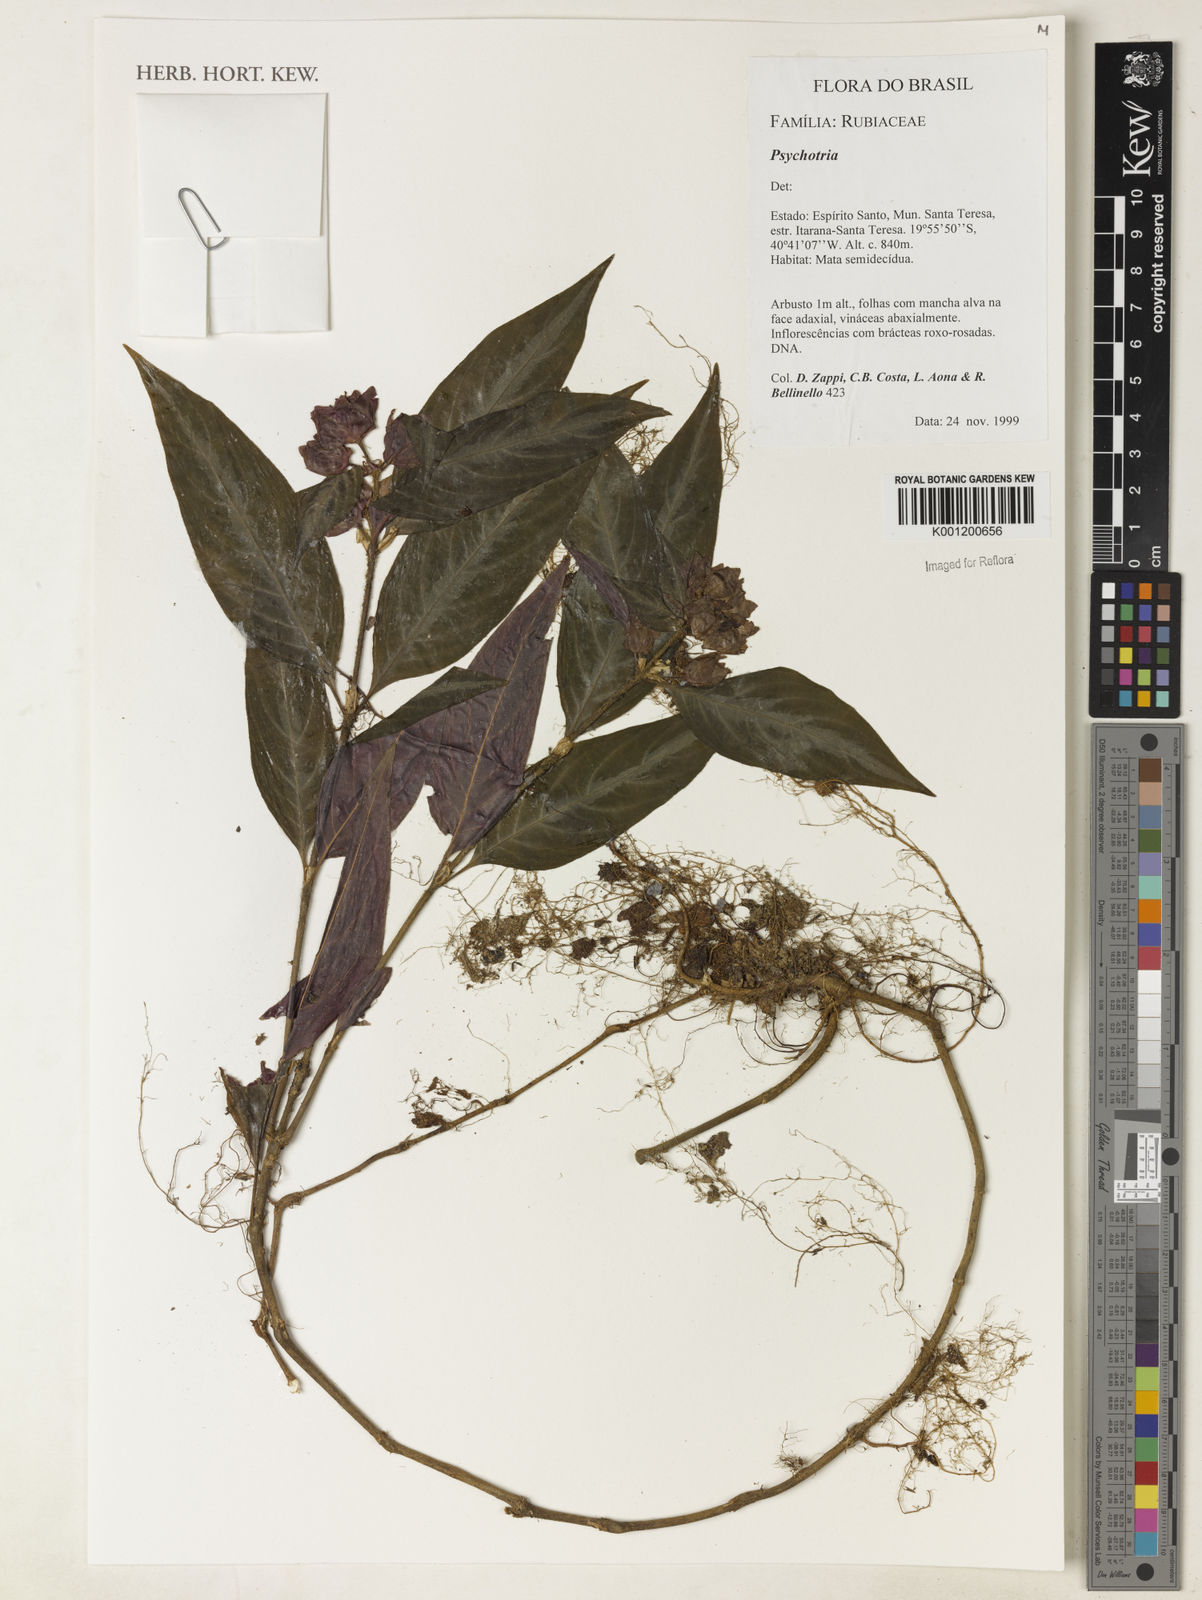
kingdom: Plantae
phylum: Tracheophyta
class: Magnoliopsida
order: Gentianales
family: Rubiaceae
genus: Psychotria
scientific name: Psychotria
